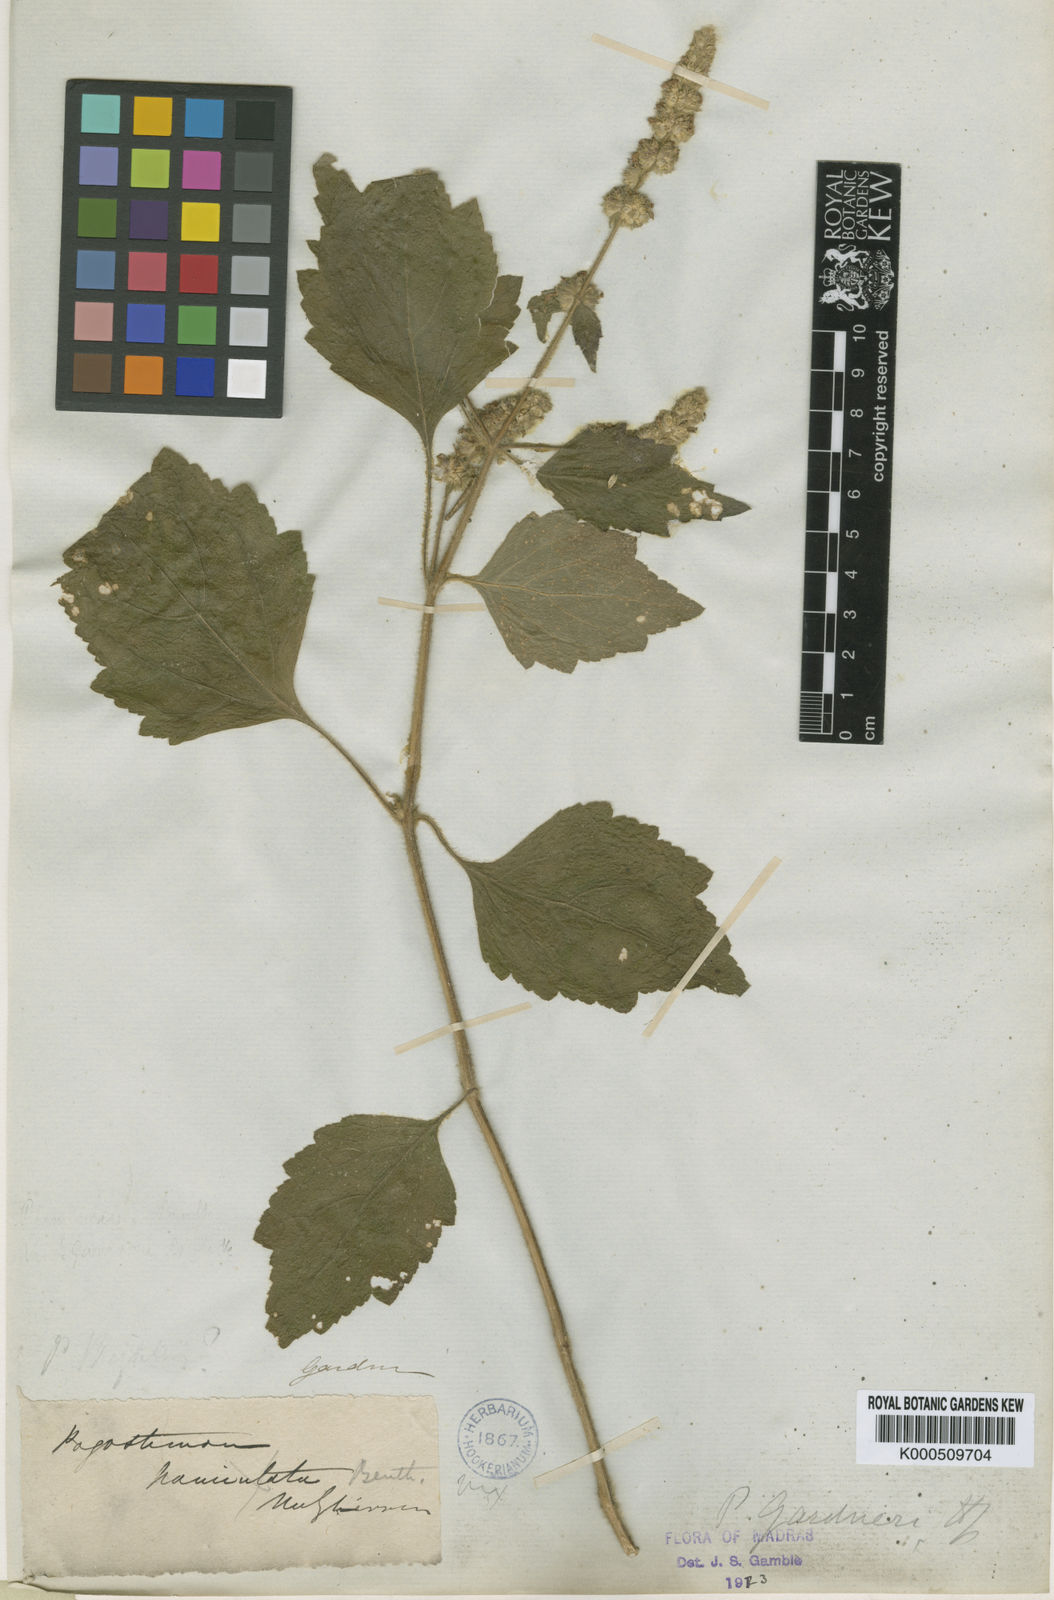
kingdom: Plantae
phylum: Tracheophyta
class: Magnoliopsida
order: Lamiales
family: Lamiaceae
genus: Pogostemon
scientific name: Pogostemon gardneri
